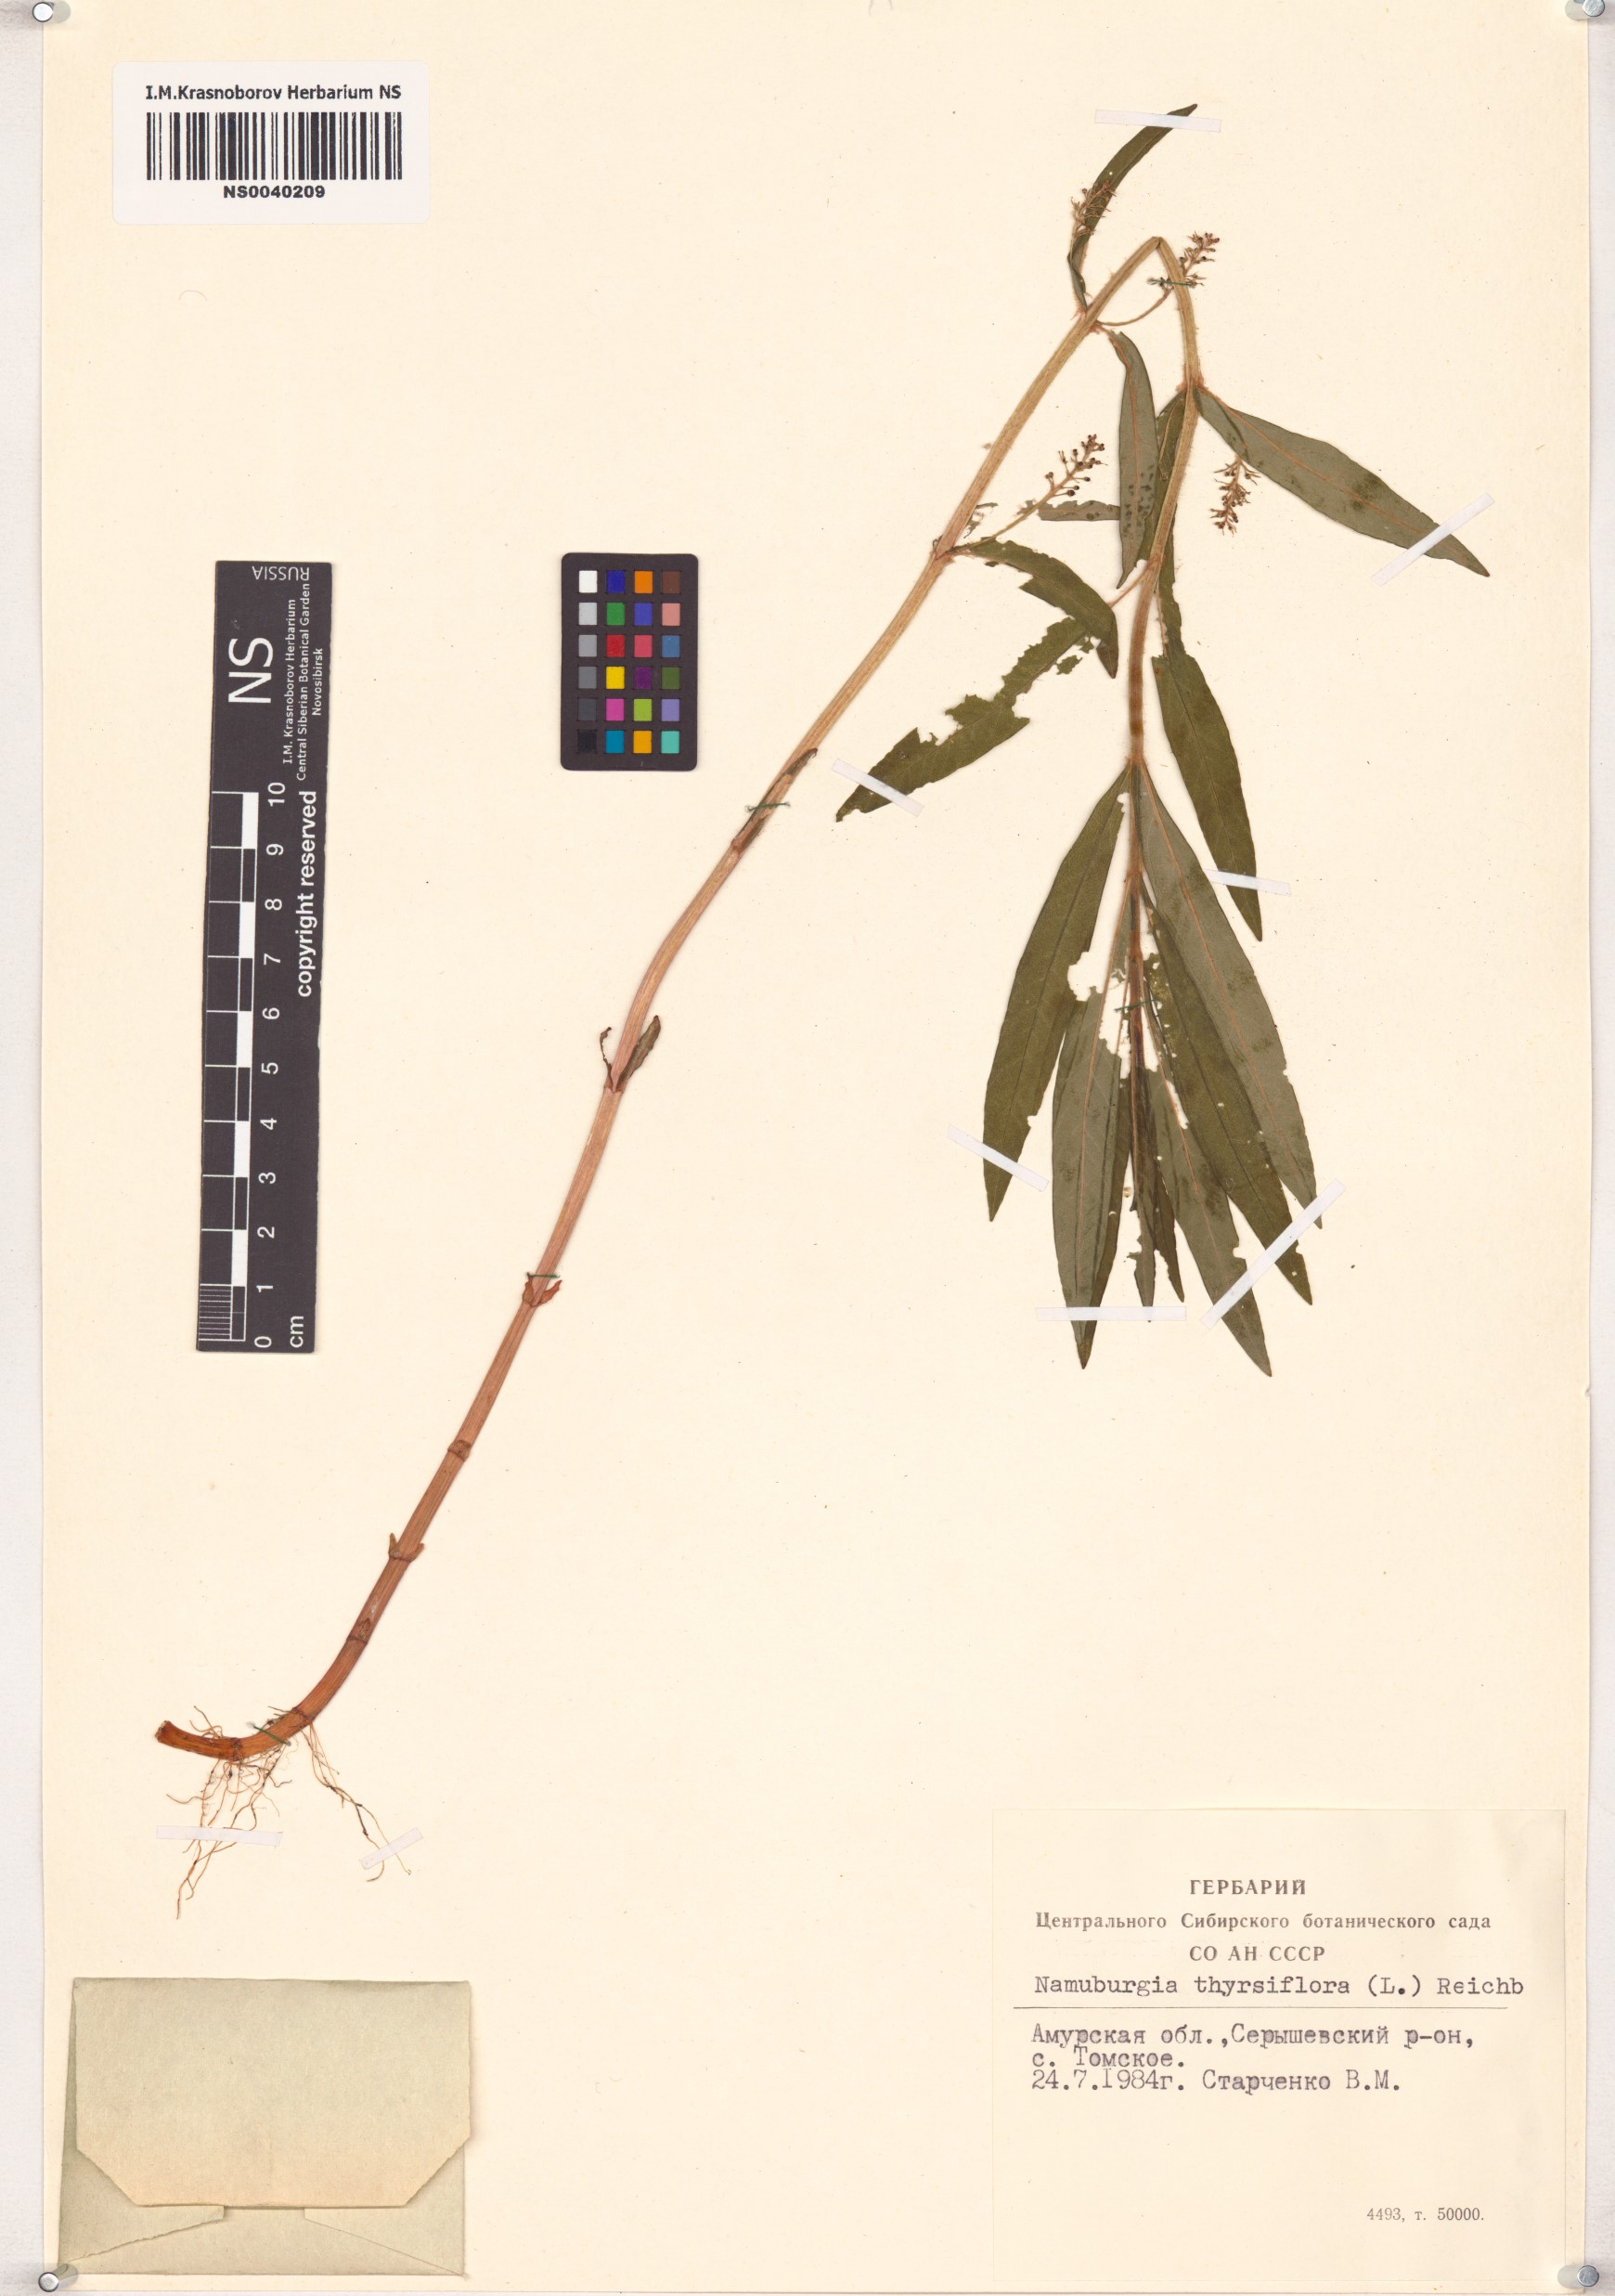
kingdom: Plantae
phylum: Tracheophyta
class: Magnoliopsida
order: Ericales
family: Primulaceae
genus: Lysimachia
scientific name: Lysimachia thyrsiflora
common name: Tufted loosestrife
